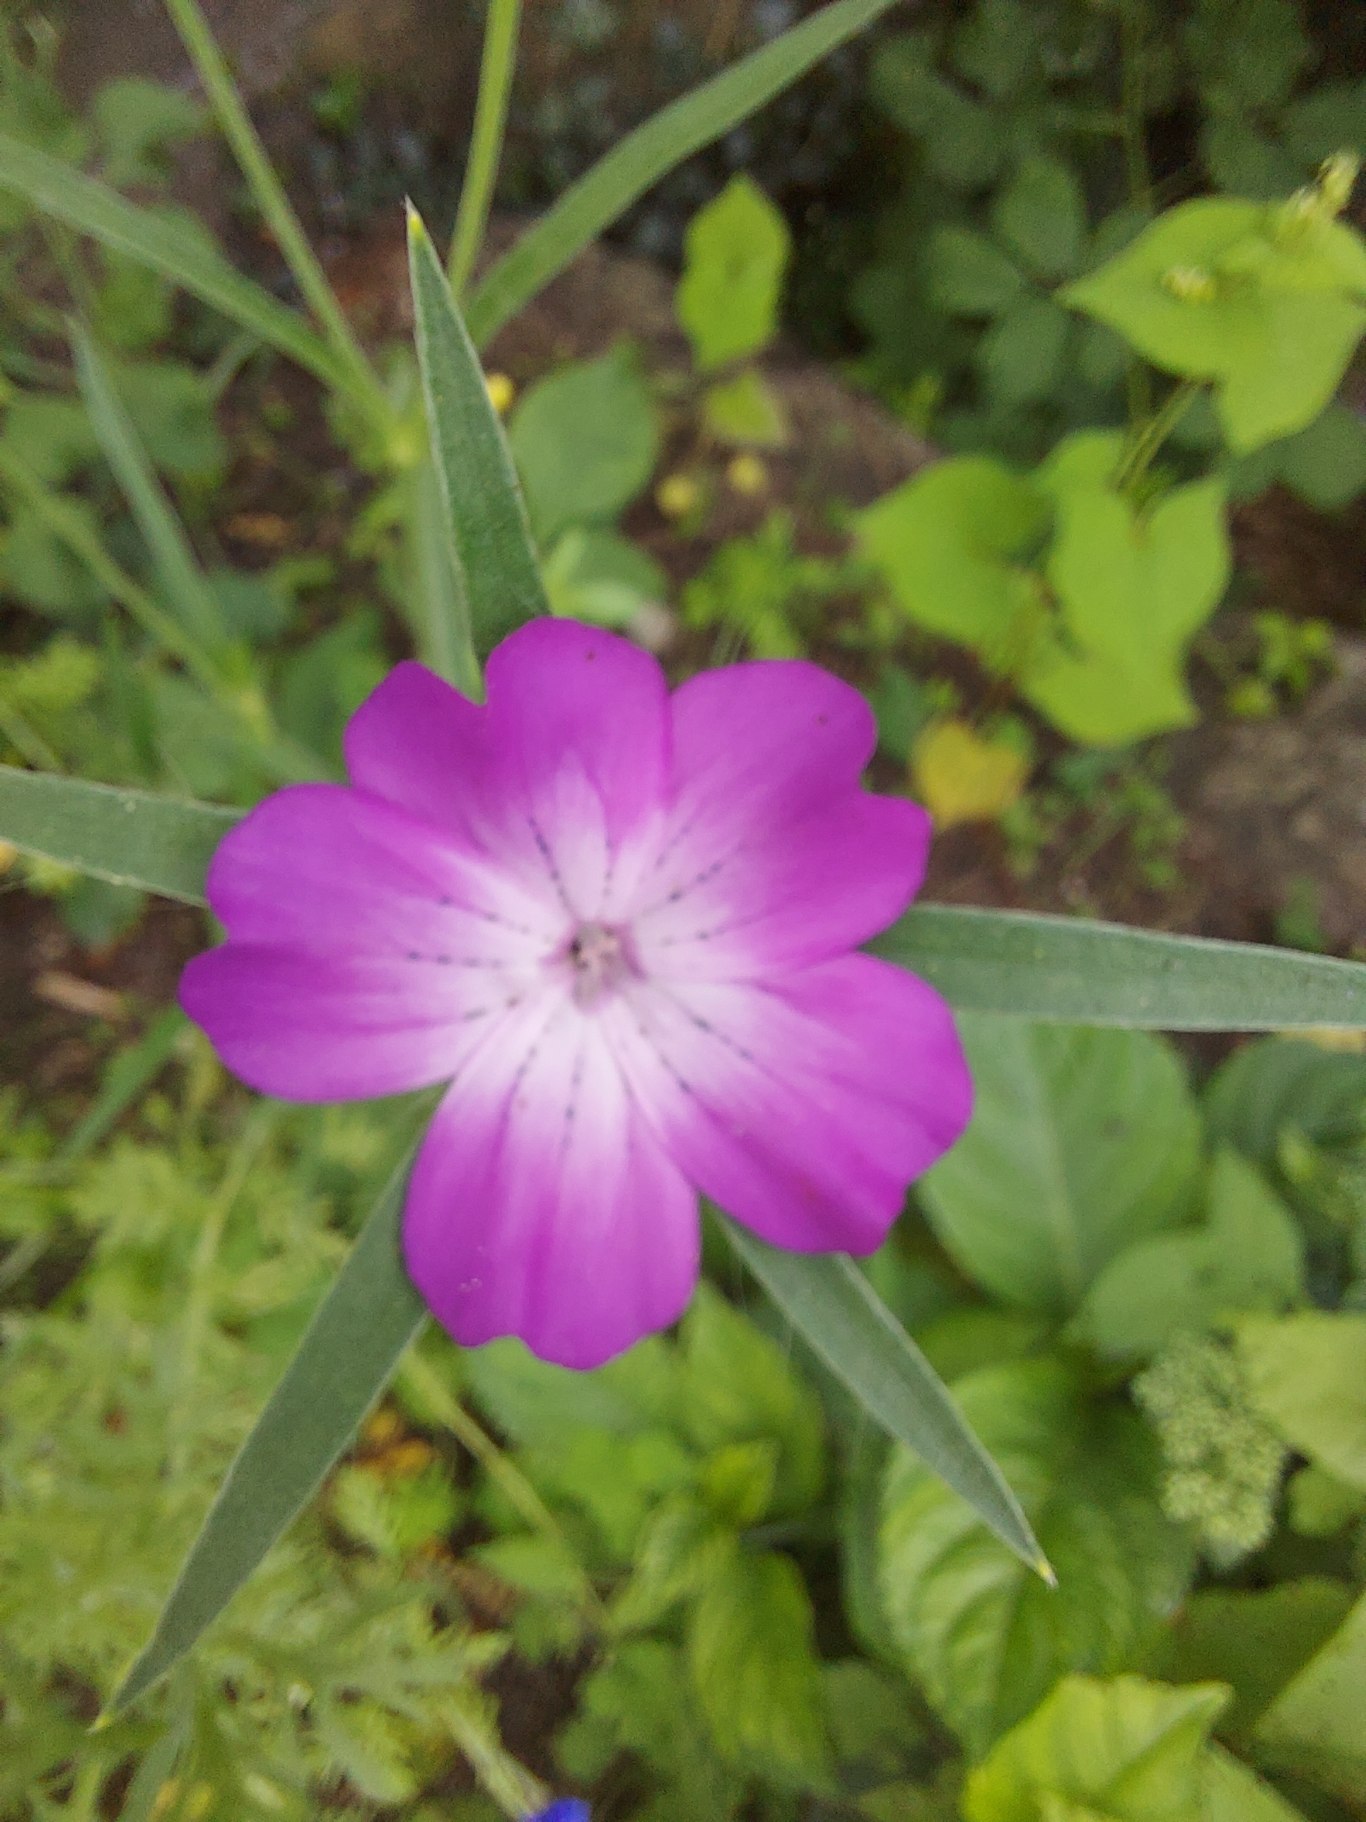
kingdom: Plantae
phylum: Tracheophyta
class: Magnoliopsida
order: Caryophyllales
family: Caryophyllaceae
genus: Agrostemma
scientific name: Agrostemma githago
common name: Klinte
